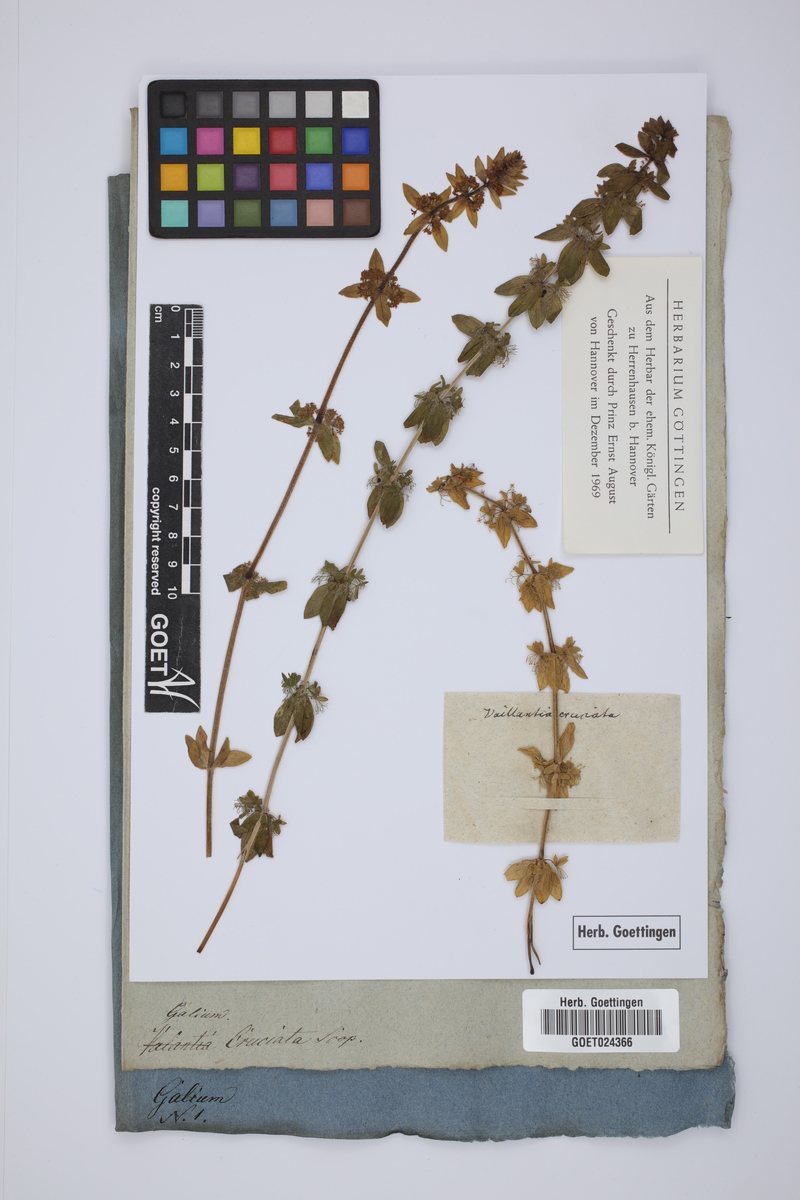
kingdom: Plantae
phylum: Tracheophyta
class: Magnoliopsida
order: Gentianales
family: Rubiaceae
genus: Cruciata
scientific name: Cruciata laevipes
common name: Crosswort
